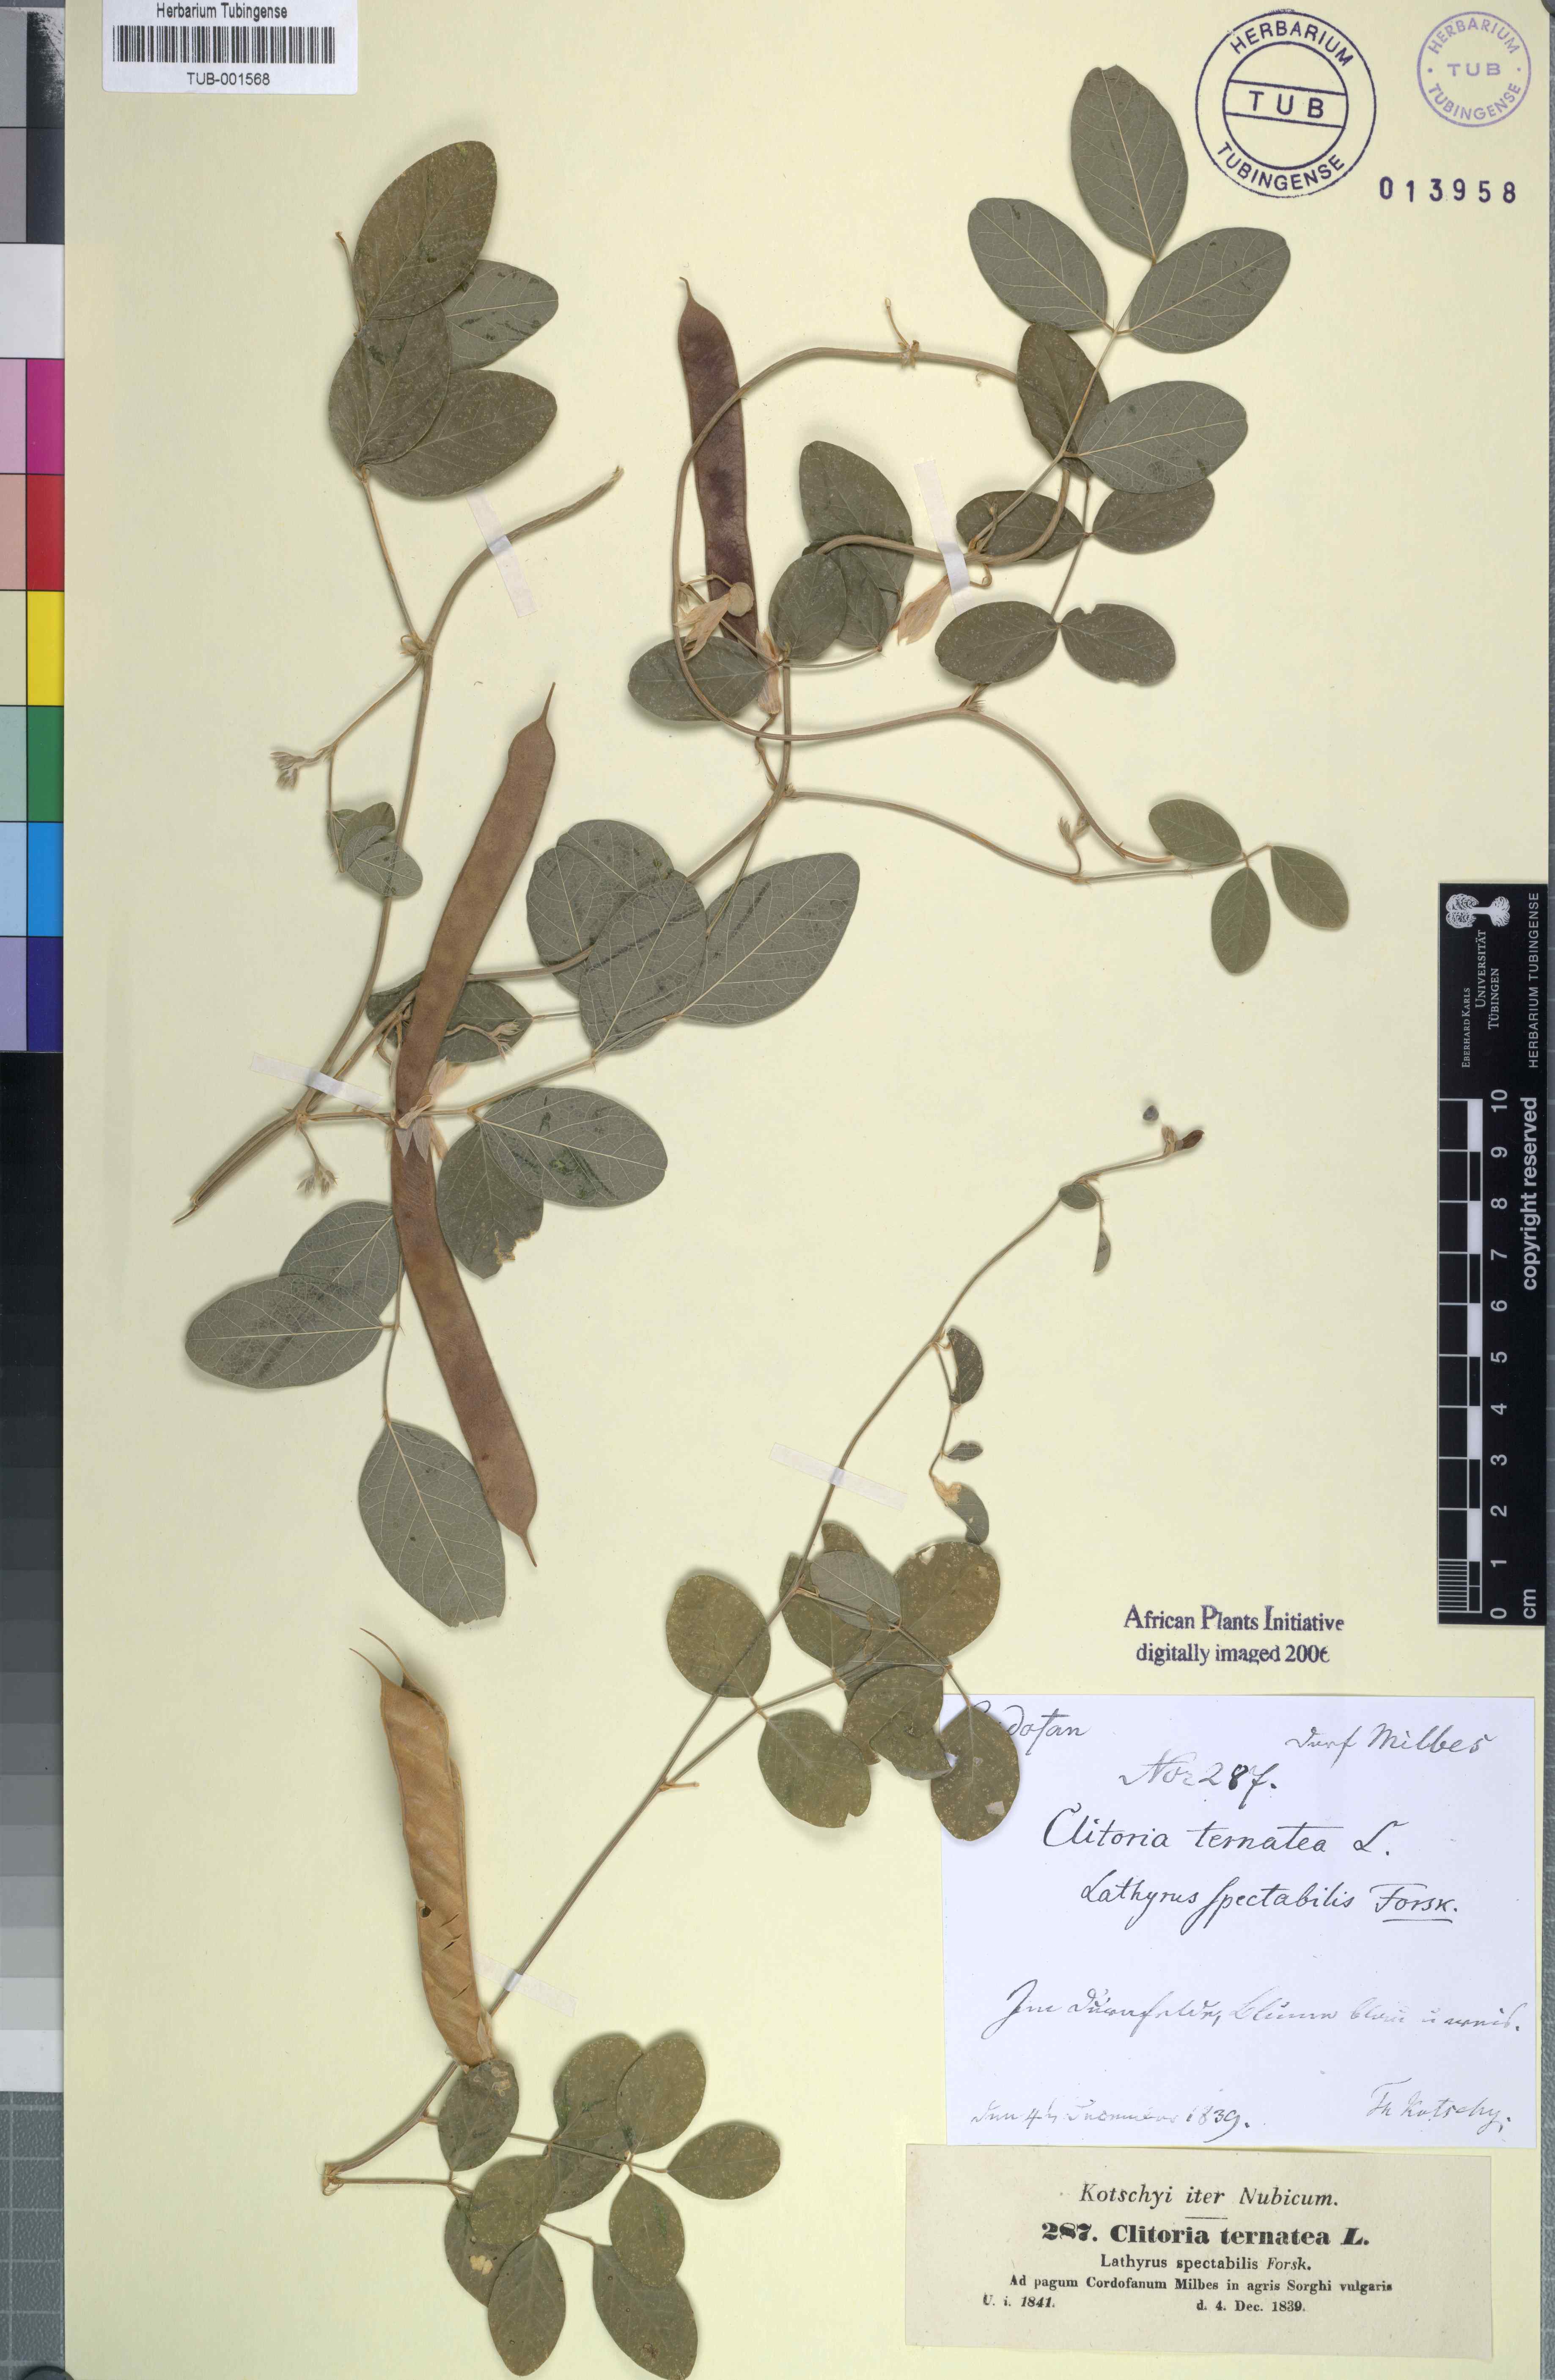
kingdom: Plantae
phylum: Tracheophyta
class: Magnoliopsida
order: Fabales
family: Fabaceae
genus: Clitoria
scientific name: Clitoria ternatea
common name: Asian pigeonwings
